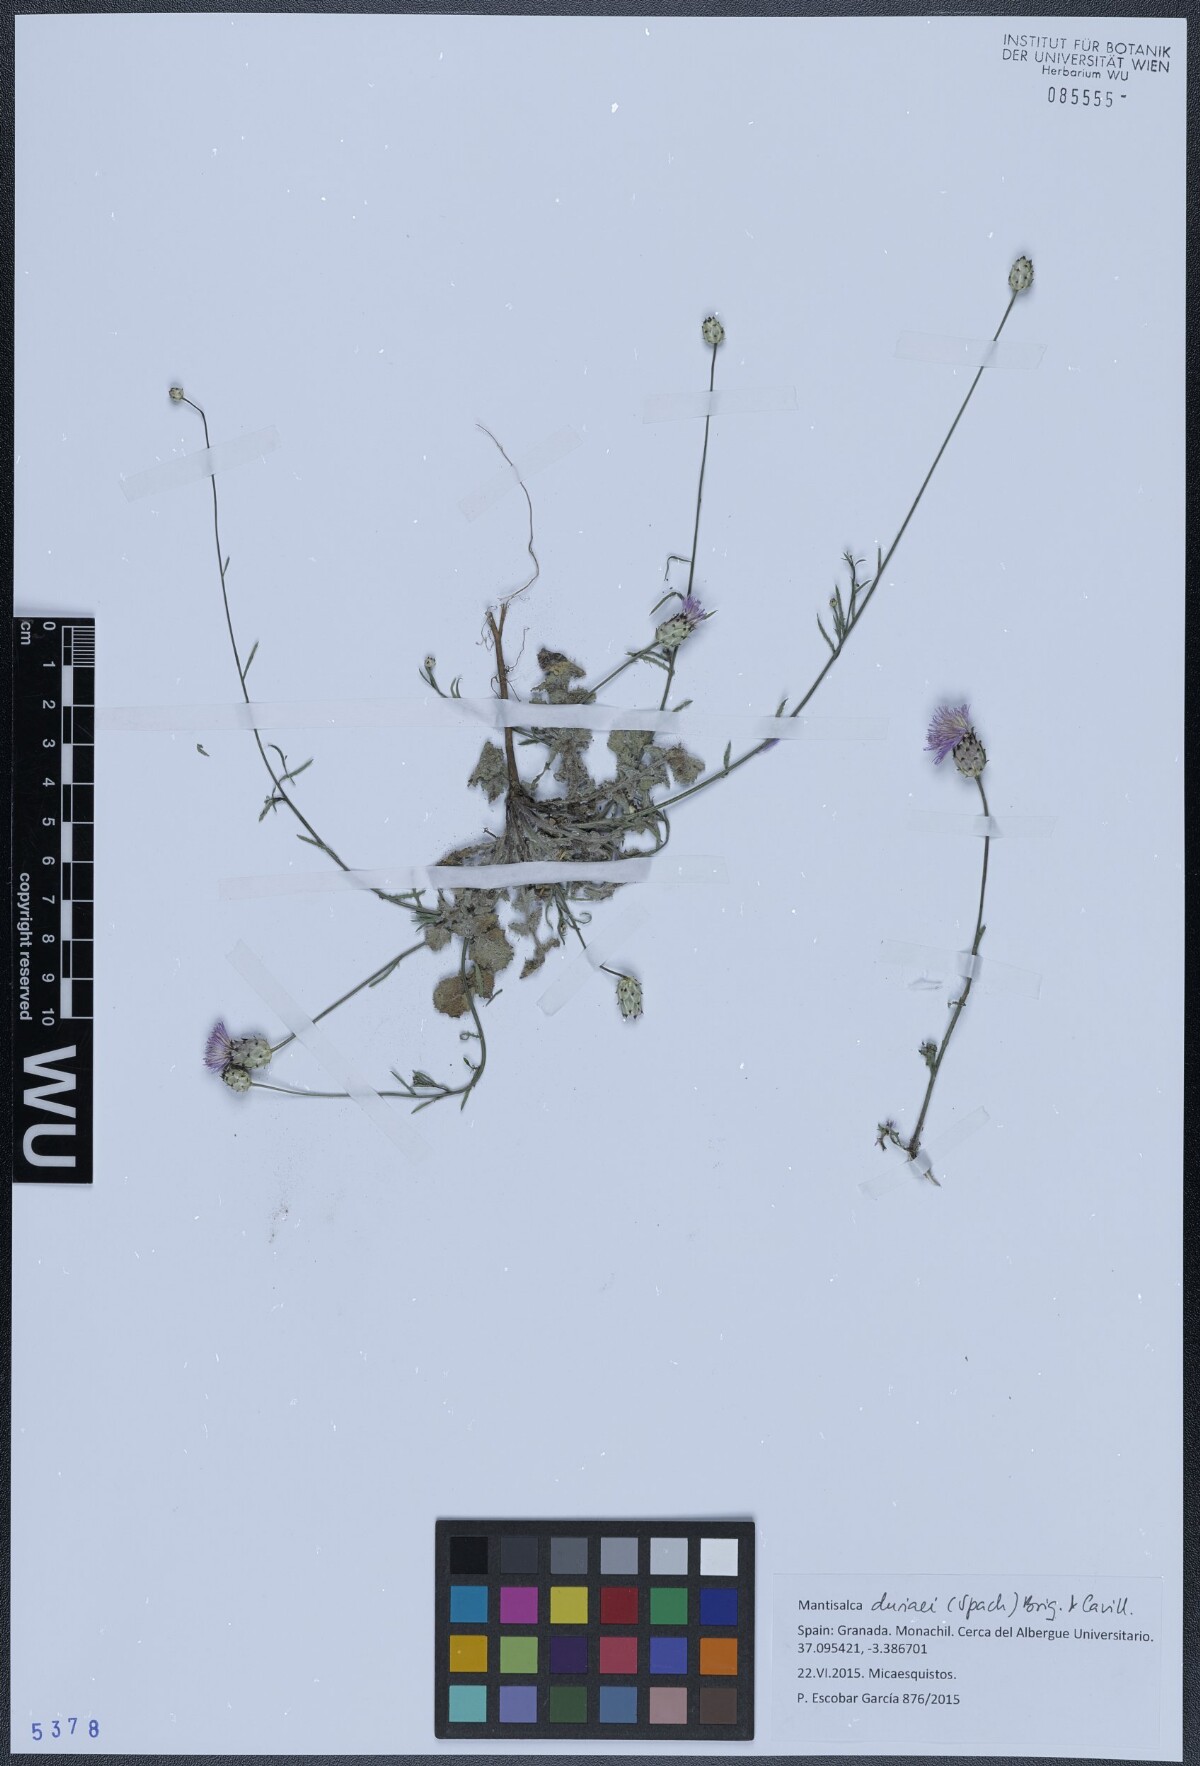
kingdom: Plantae
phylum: Tracheophyta
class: Magnoliopsida
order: Asterales
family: Asteraceae
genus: Mantisalca
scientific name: Mantisalca duriaei
